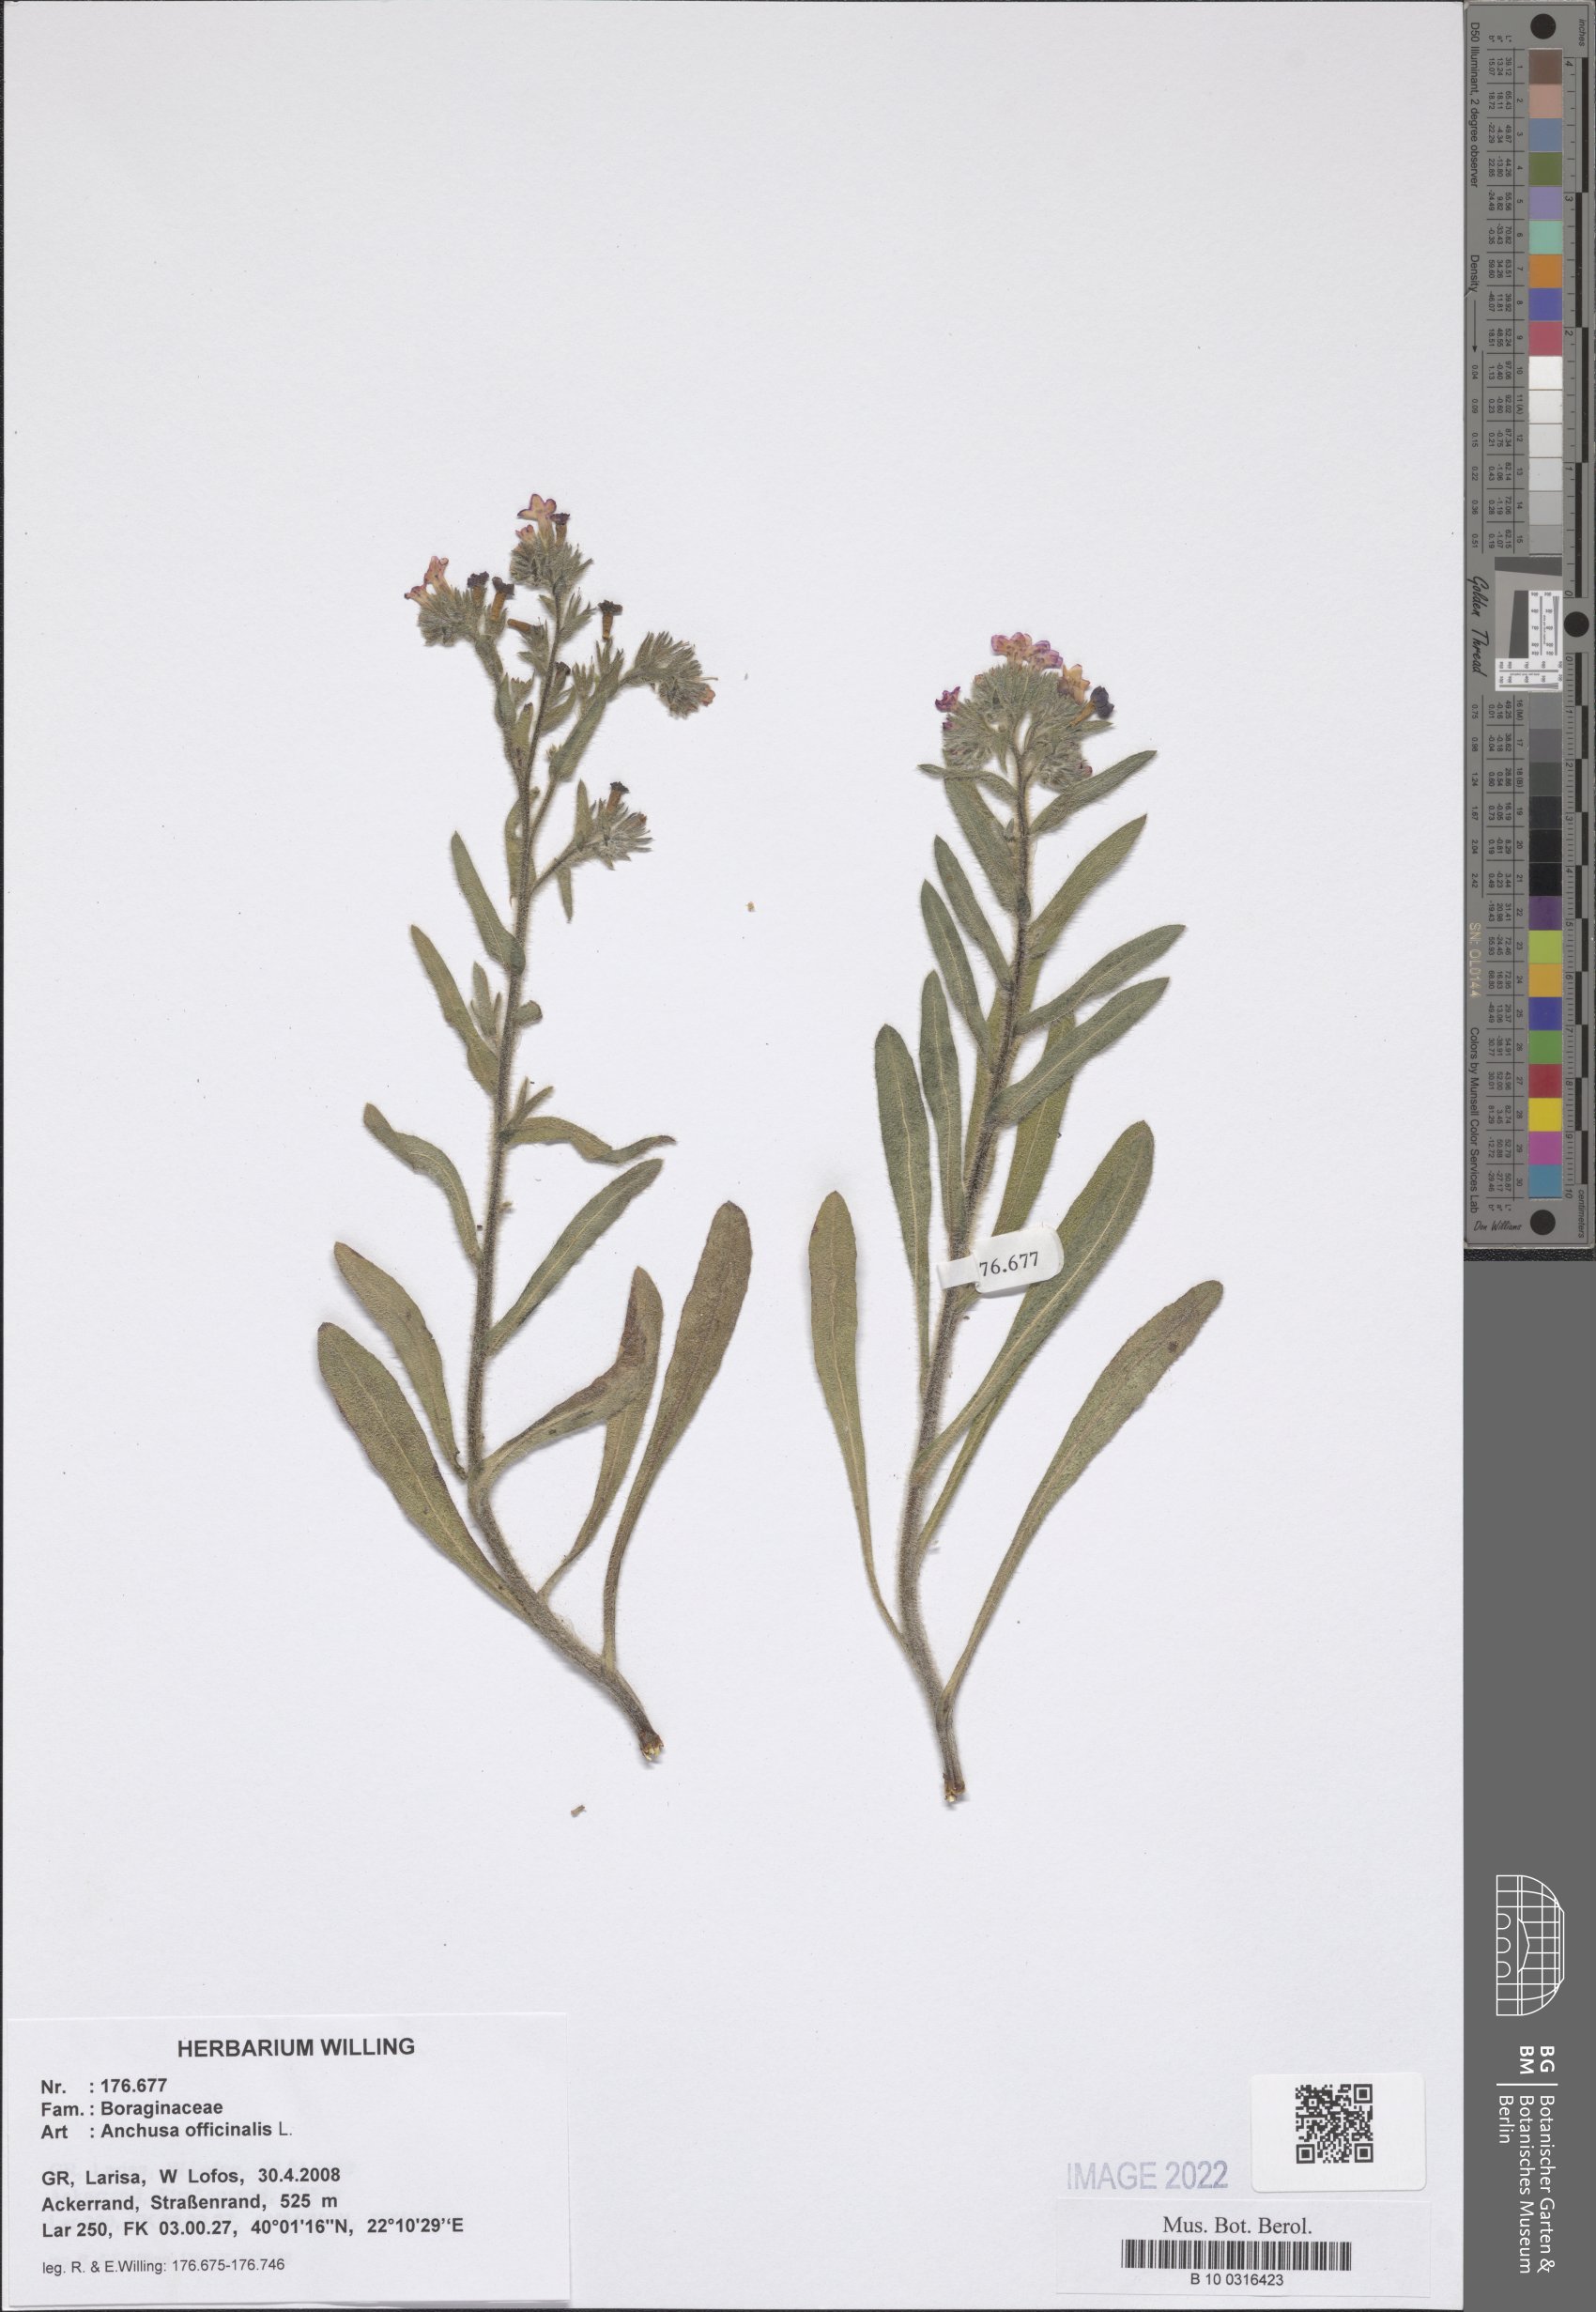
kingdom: Plantae
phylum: Tracheophyta
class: Magnoliopsida
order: Boraginales
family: Boraginaceae
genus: Anchusa
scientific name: Anchusa officinalis
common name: Alkanet
